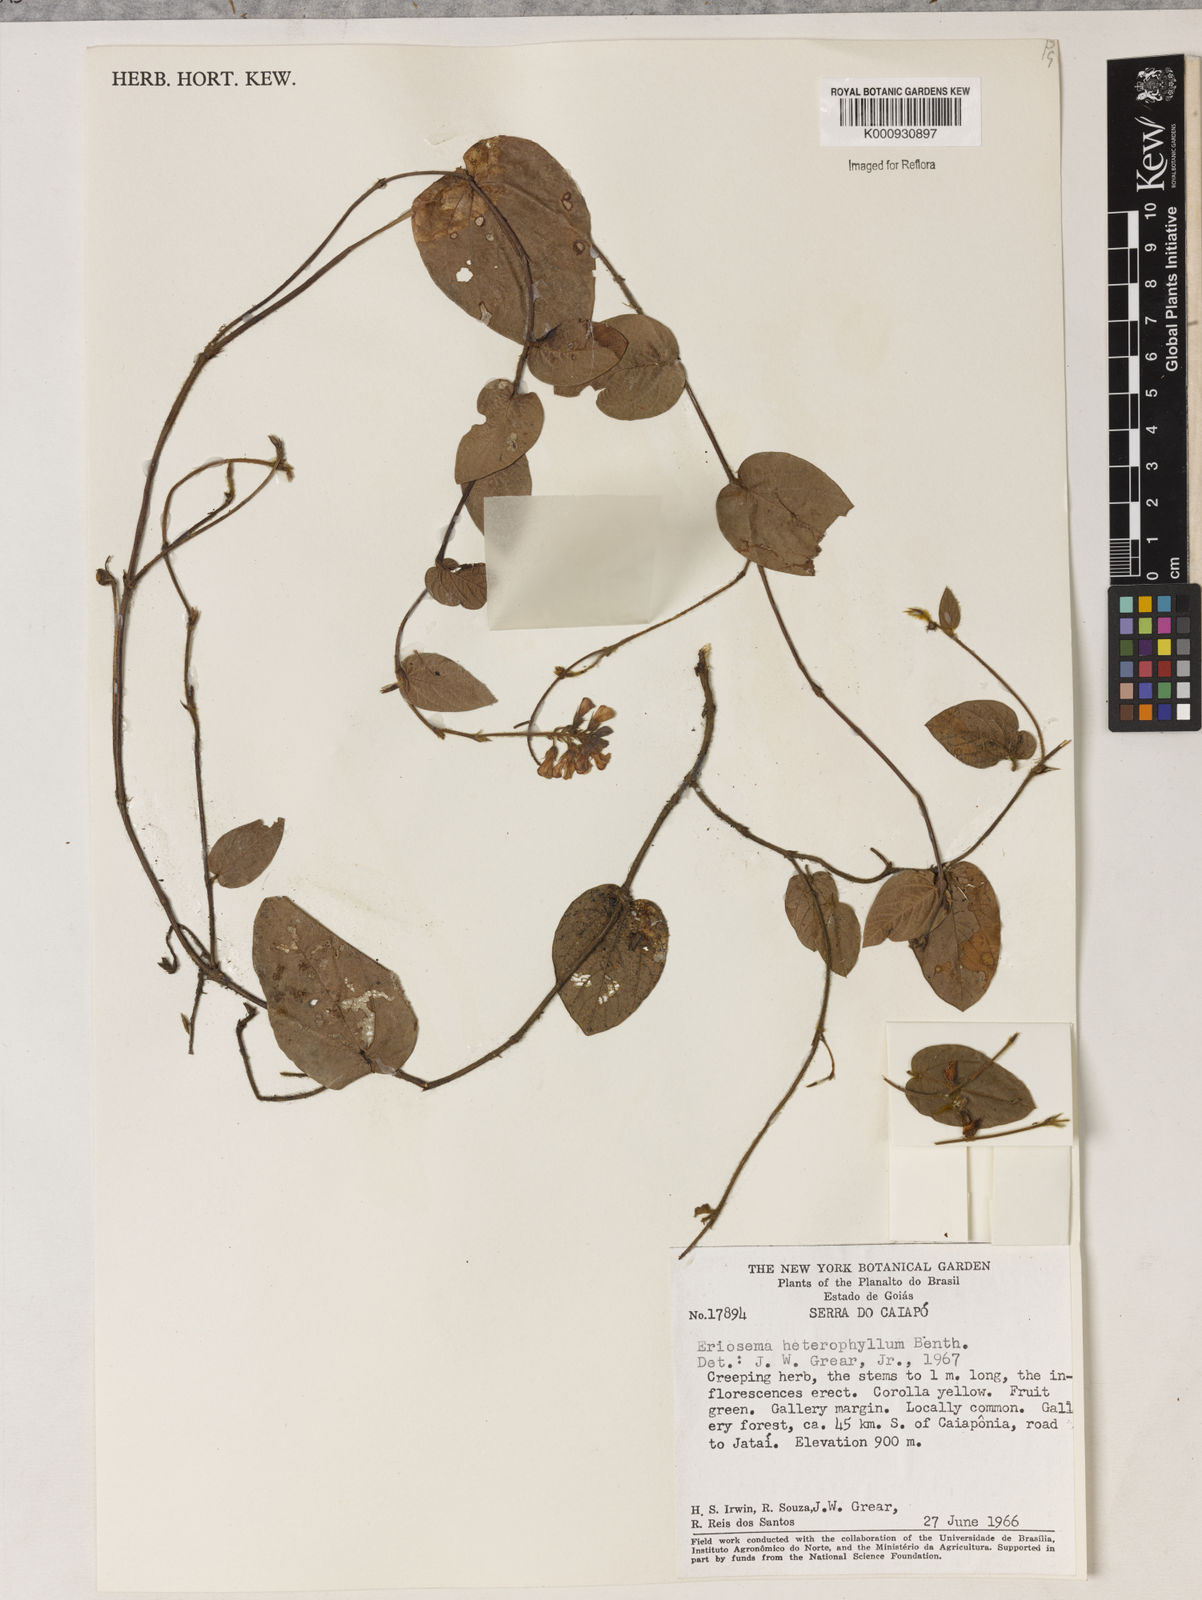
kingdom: Plantae
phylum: Tracheophyta
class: Magnoliopsida
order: Fabales
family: Fabaceae
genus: Eriosema
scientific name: Eriosema heterophyllum
